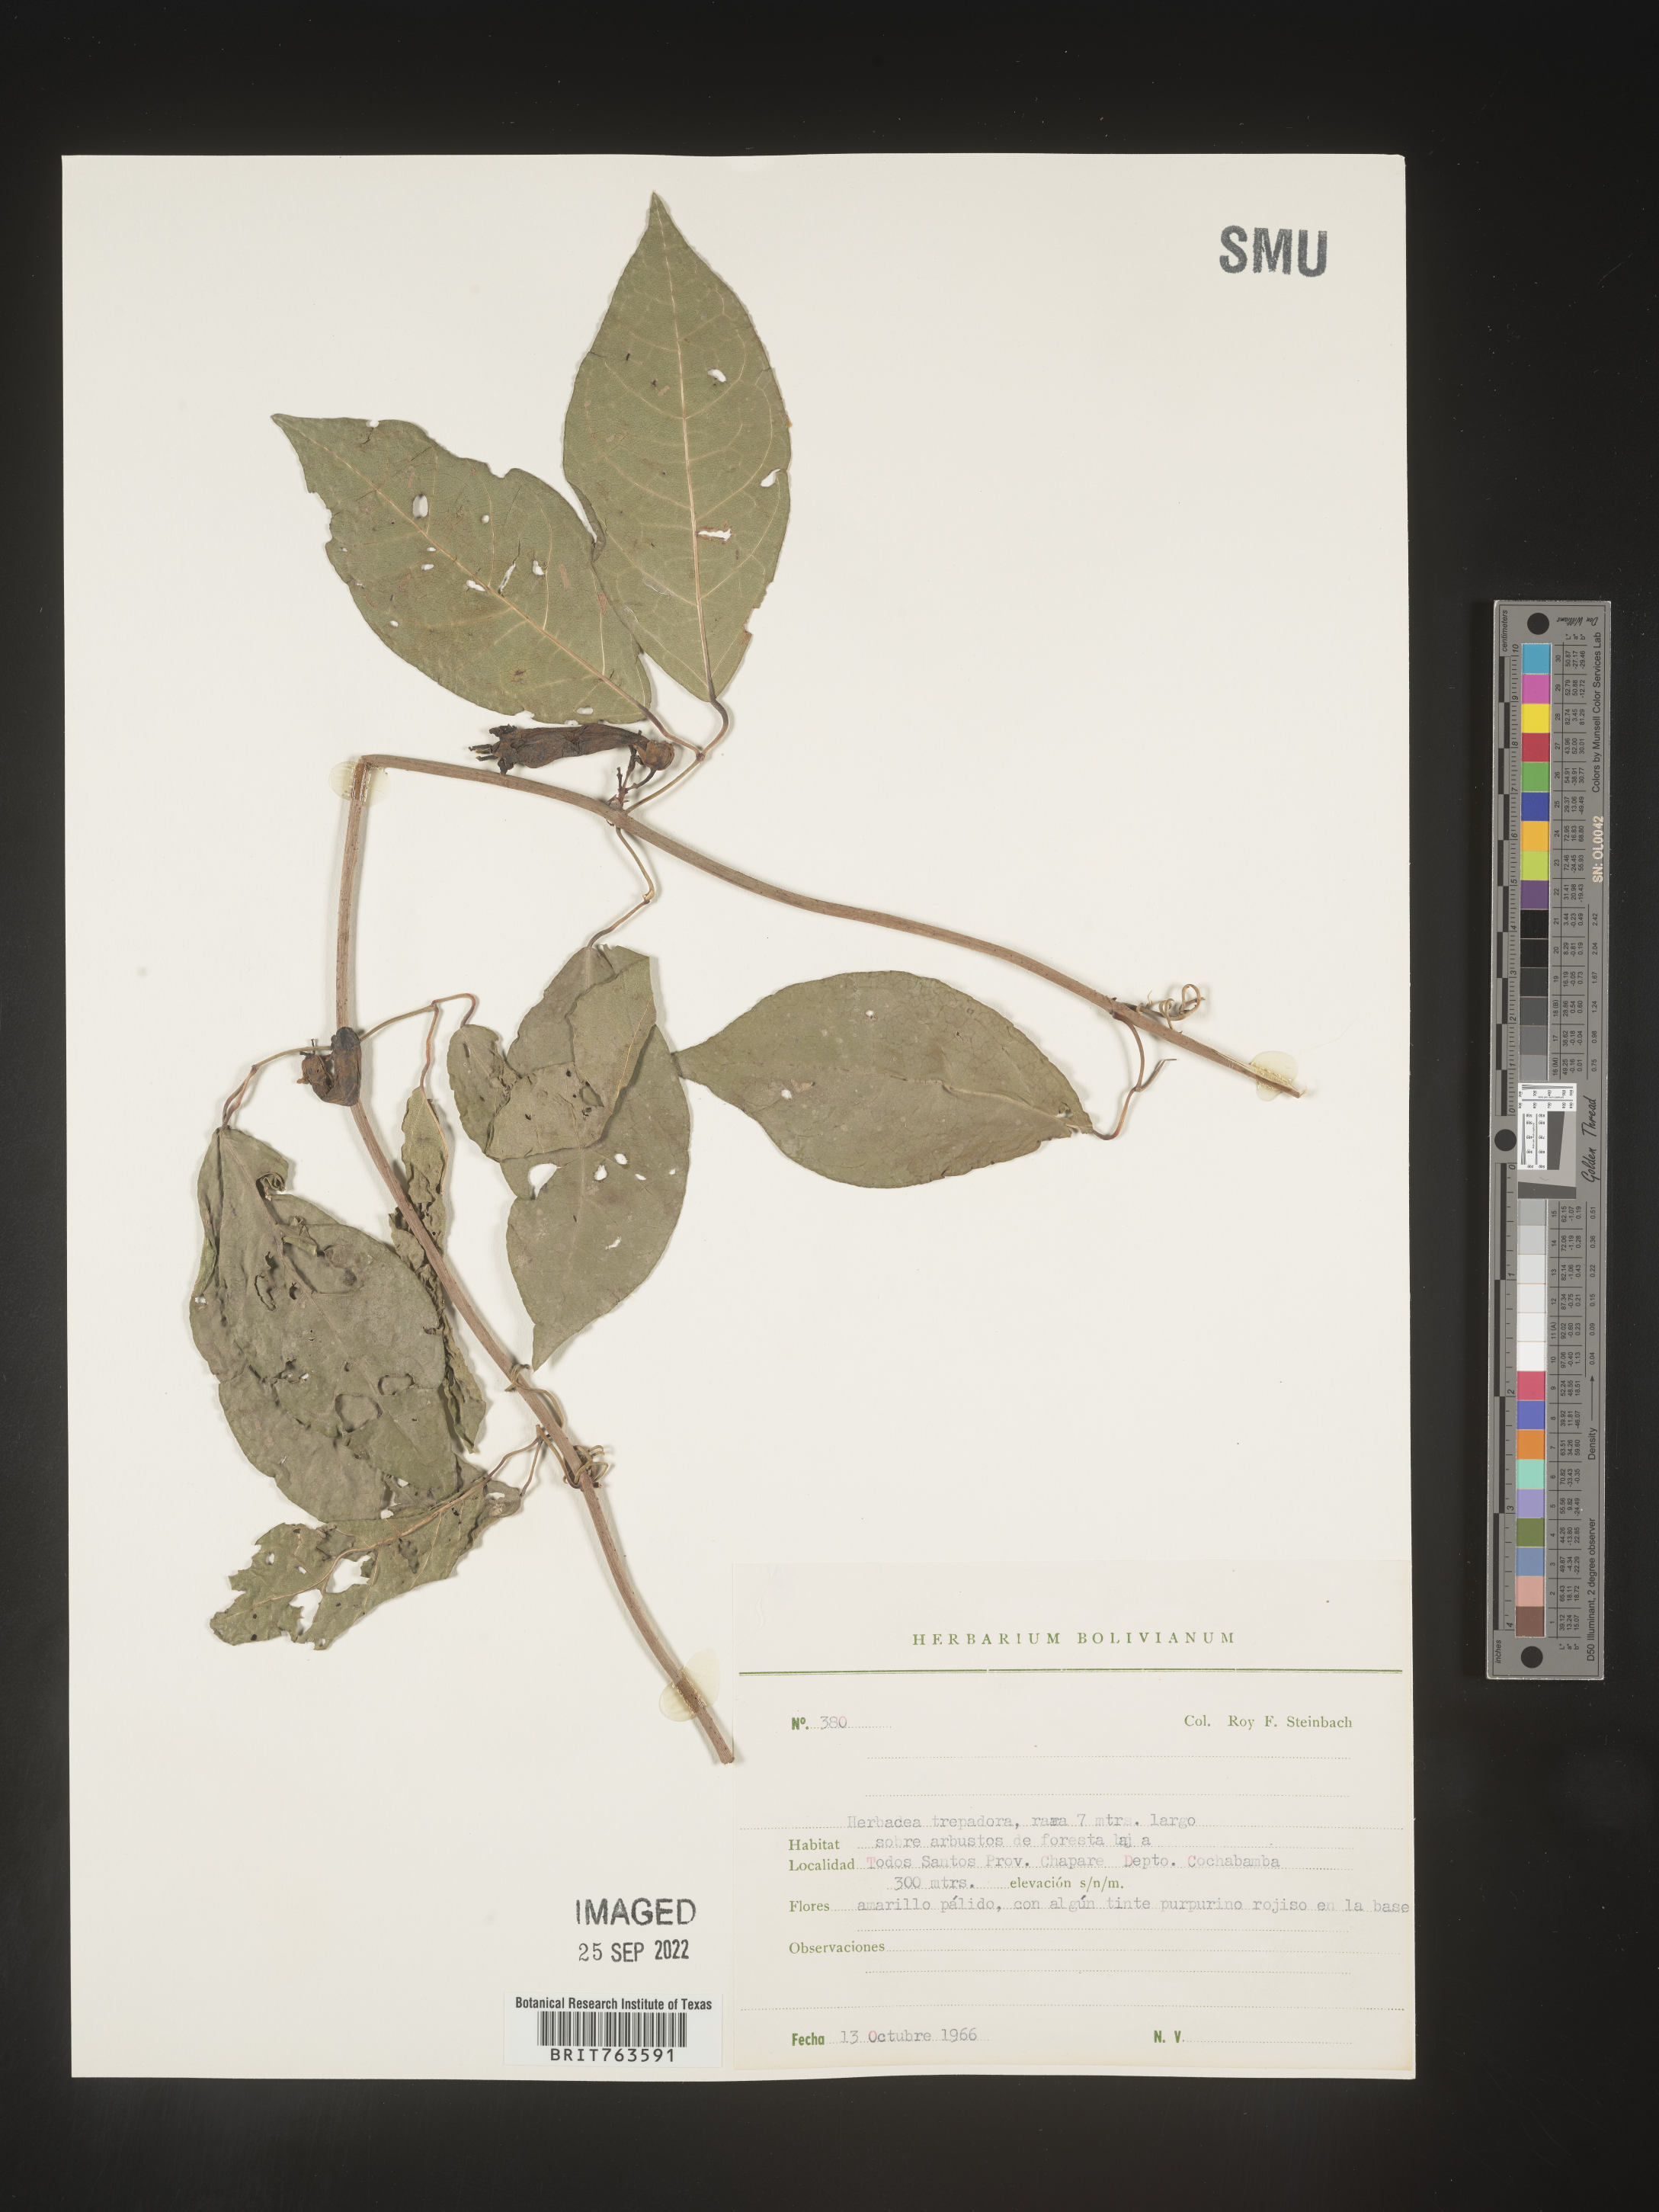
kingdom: Plantae
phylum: Tracheophyta
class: Magnoliopsida
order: Lamiales
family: Bignoniaceae
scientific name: Bignoniaceae
